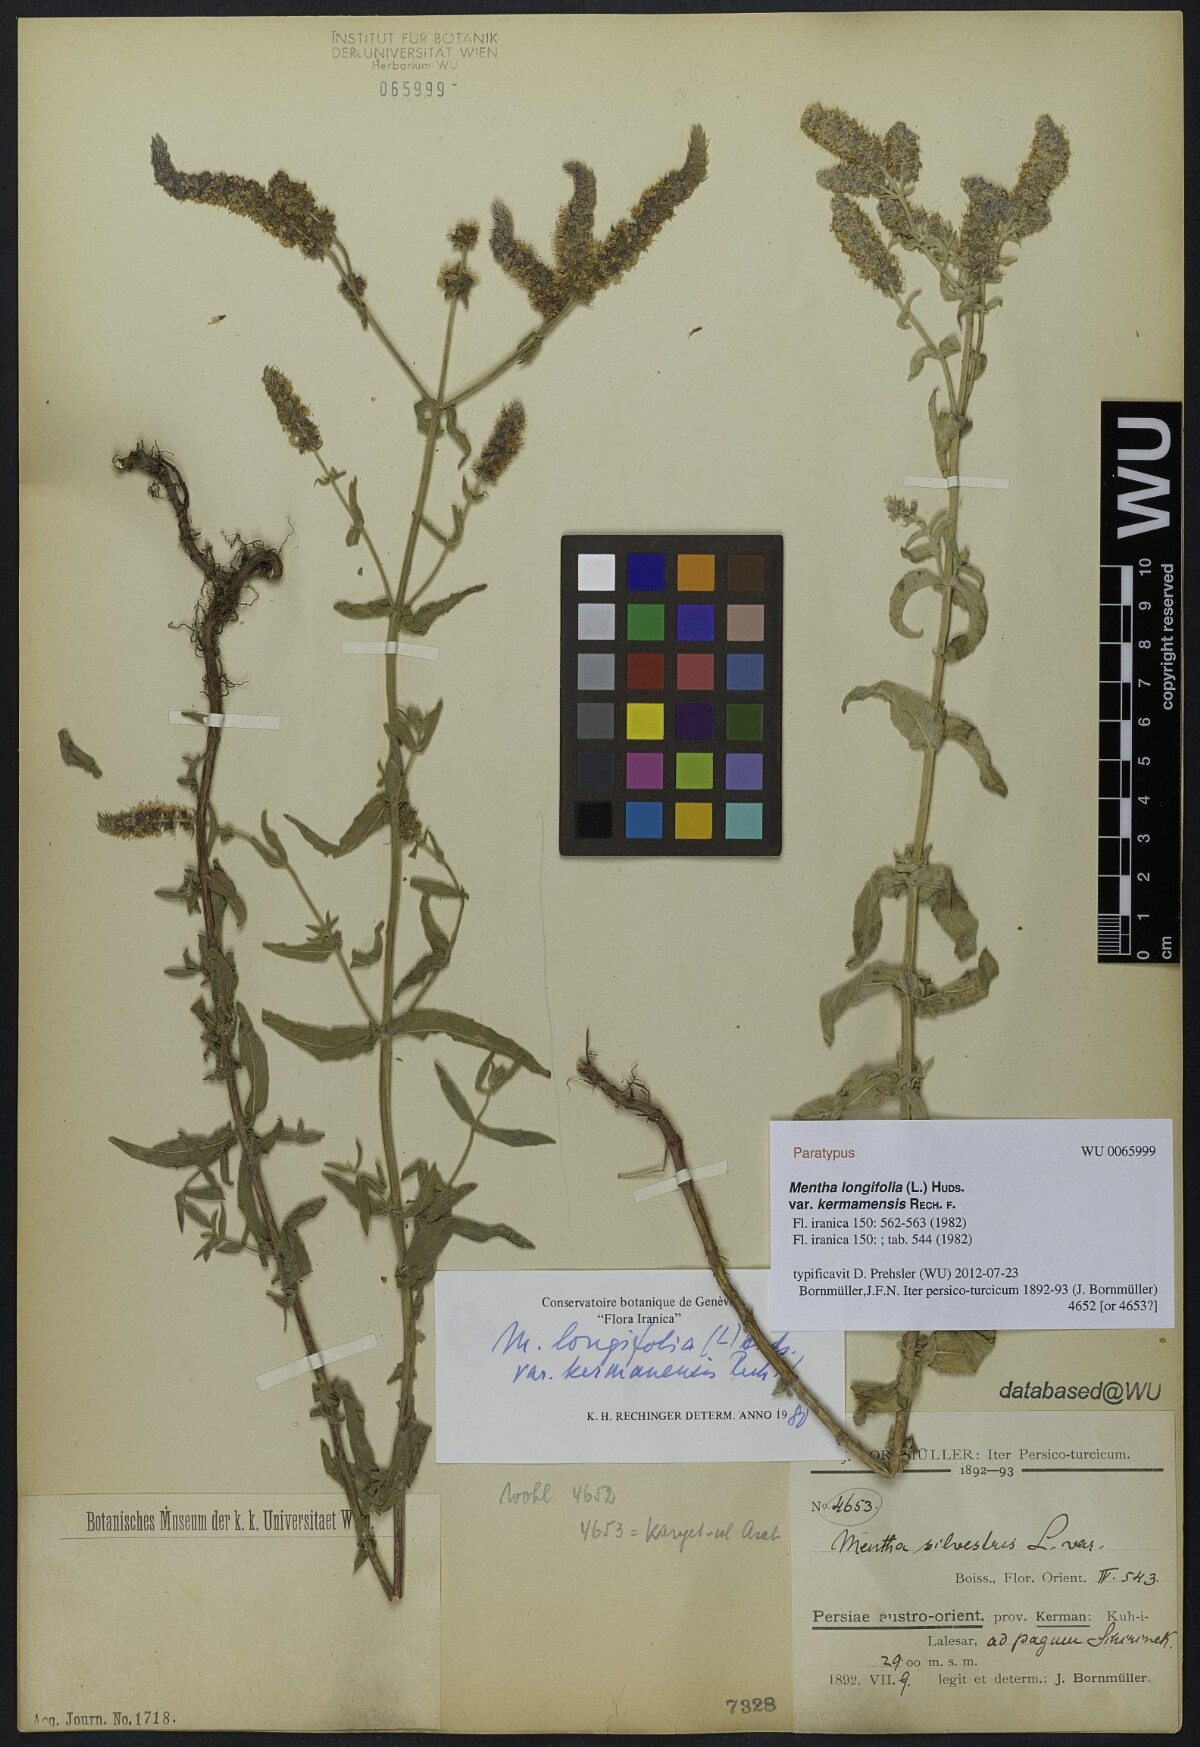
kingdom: Plantae
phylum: Tracheophyta
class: Magnoliopsida
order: Lamiales
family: Lamiaceae
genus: Mentha
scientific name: Mentha longifolia
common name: Horse mint
